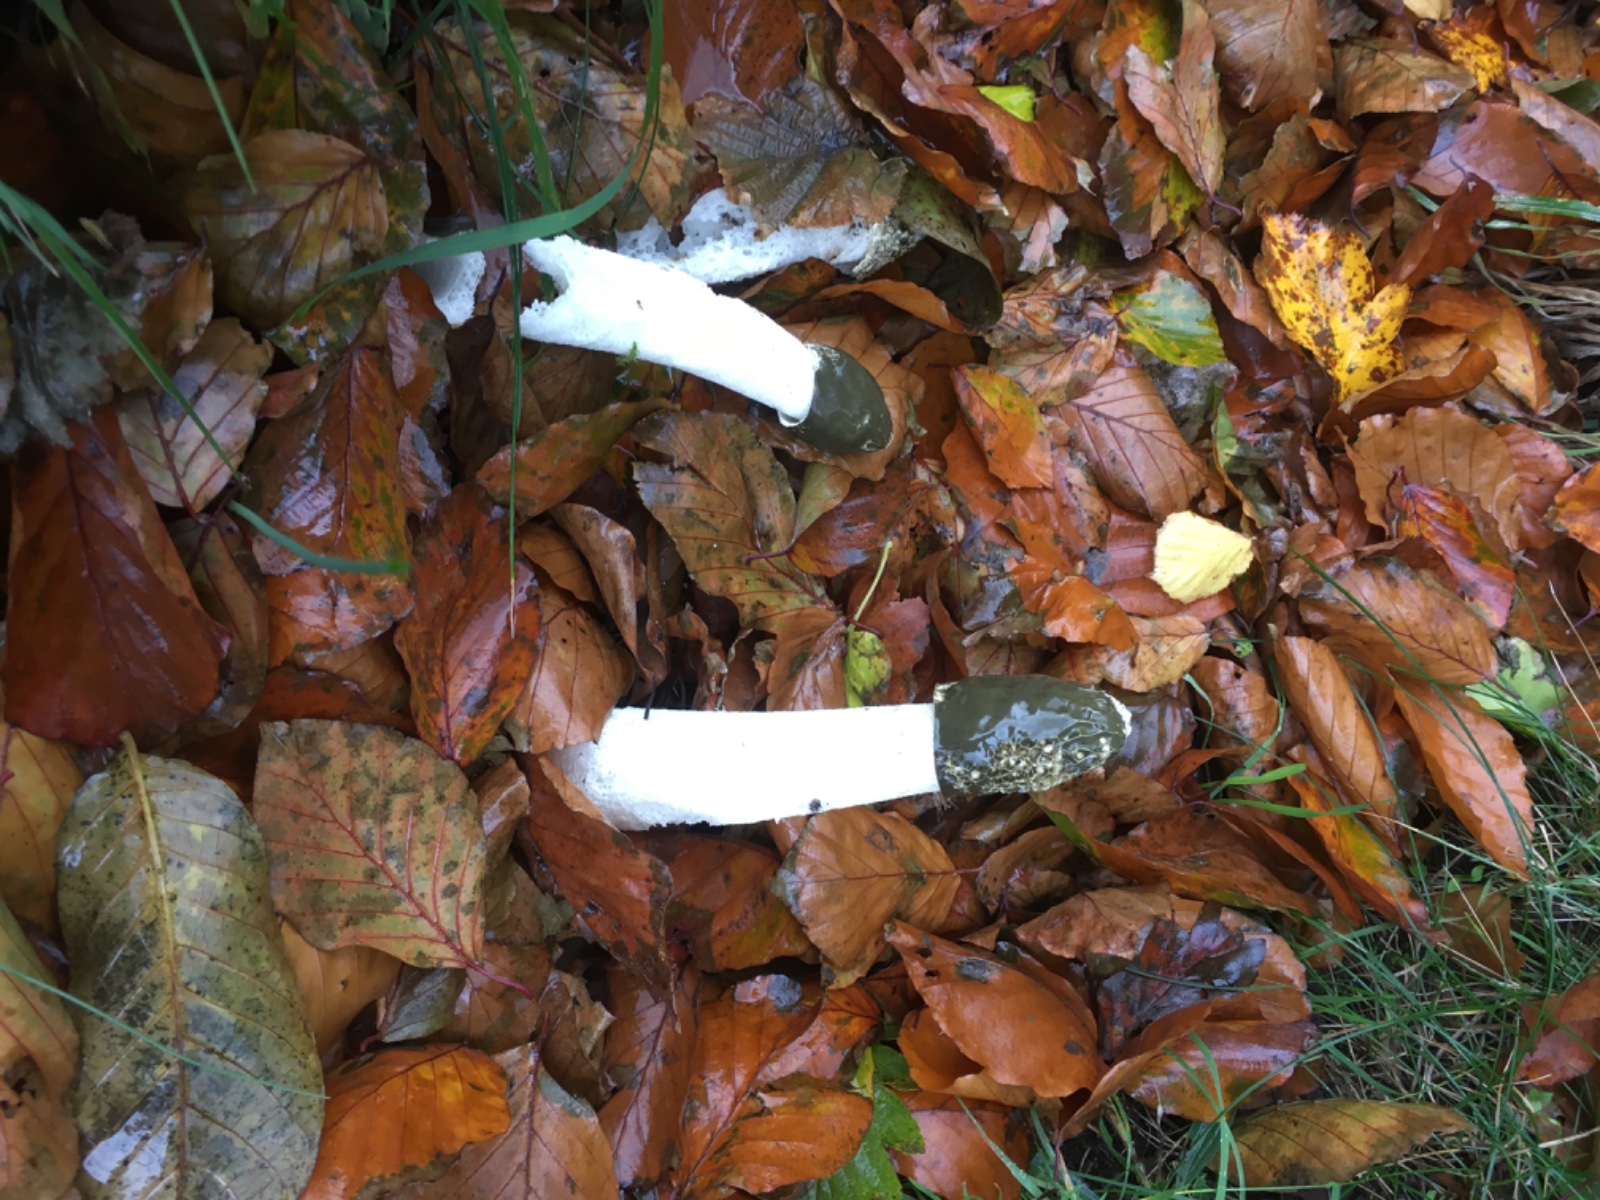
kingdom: Fungi
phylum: Basidiomycota
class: Agaricomycetes
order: Phallales
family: Phallaceae
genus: Phallus
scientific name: Phallus impudicus
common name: almindelig stinksvamp
